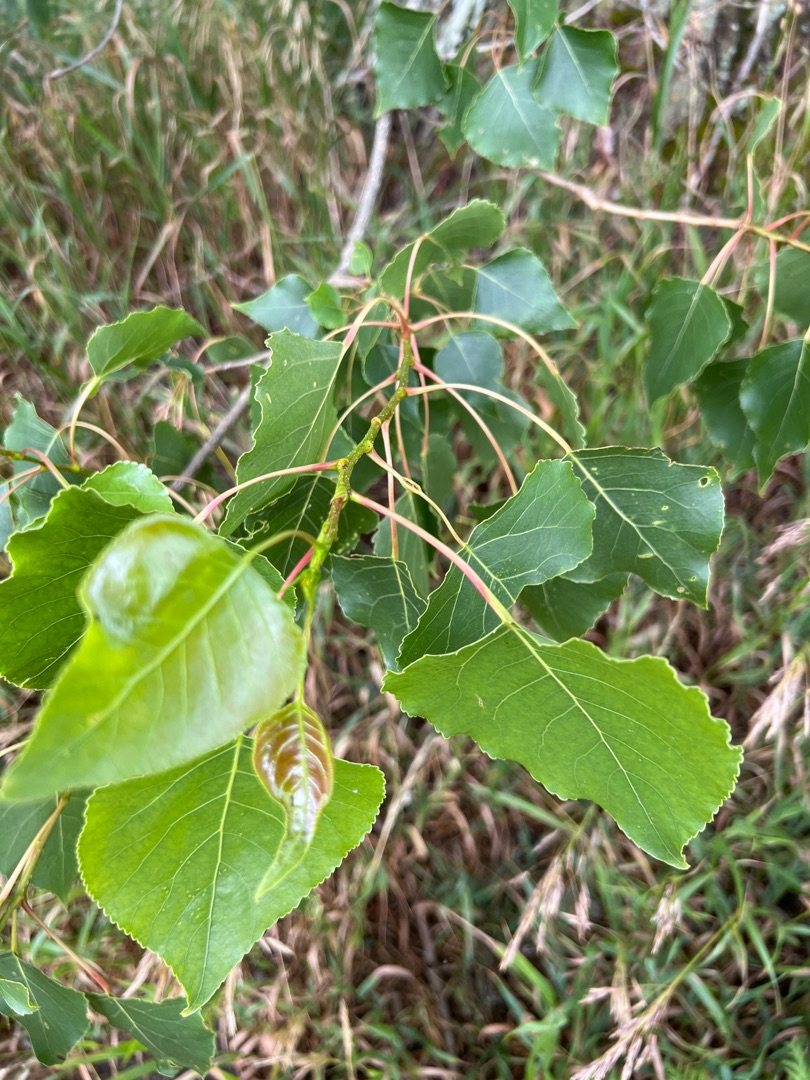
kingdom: Plantae
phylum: Tracheophyta
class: Magnoliopsida
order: Malpighiales
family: Salicaceae
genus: Populus
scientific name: Populus nigra
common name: Sort-poppel
